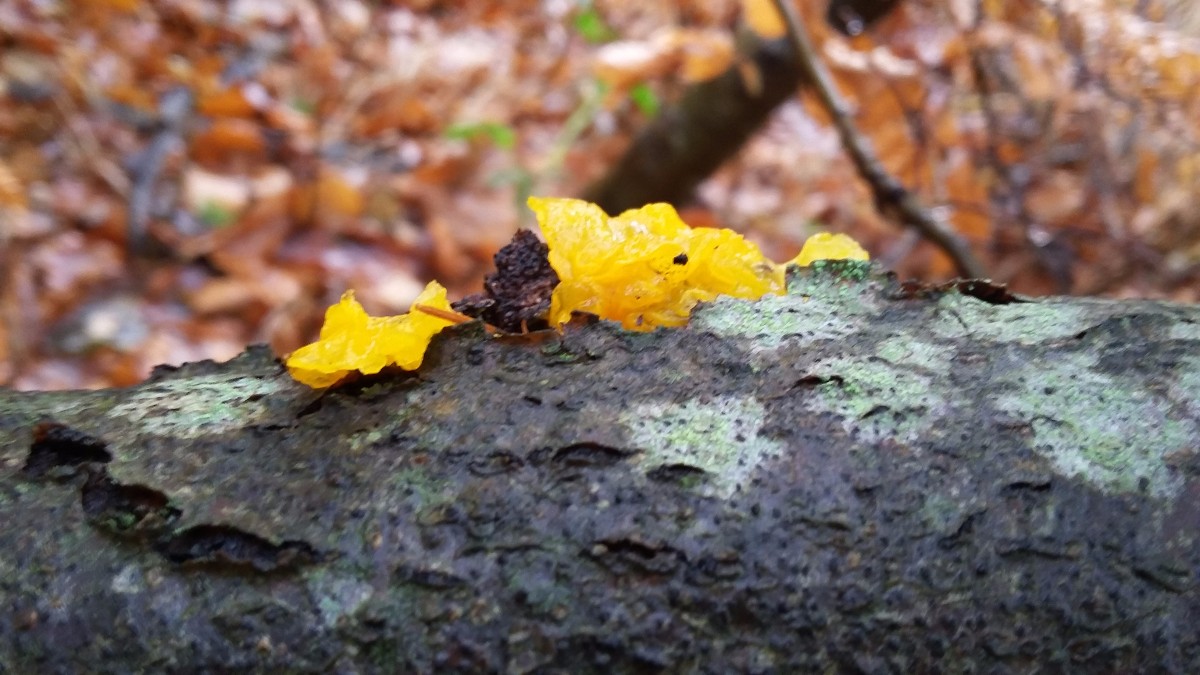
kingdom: Fungi
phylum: Basidiomycota
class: Tremellomycetes
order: Tremellales
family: Tremellaceae
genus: Tremella
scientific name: Tremella mesenterica
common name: gul bævresvamp
